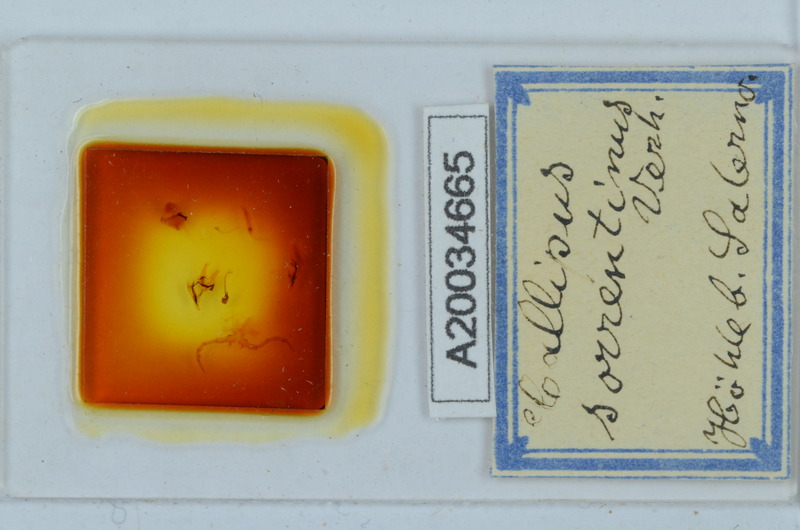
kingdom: Animalia
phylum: Arthropoda
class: Diplopoda
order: Callipodida
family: Callipodidae
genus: Callipus
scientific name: Callipus foetidissimus
